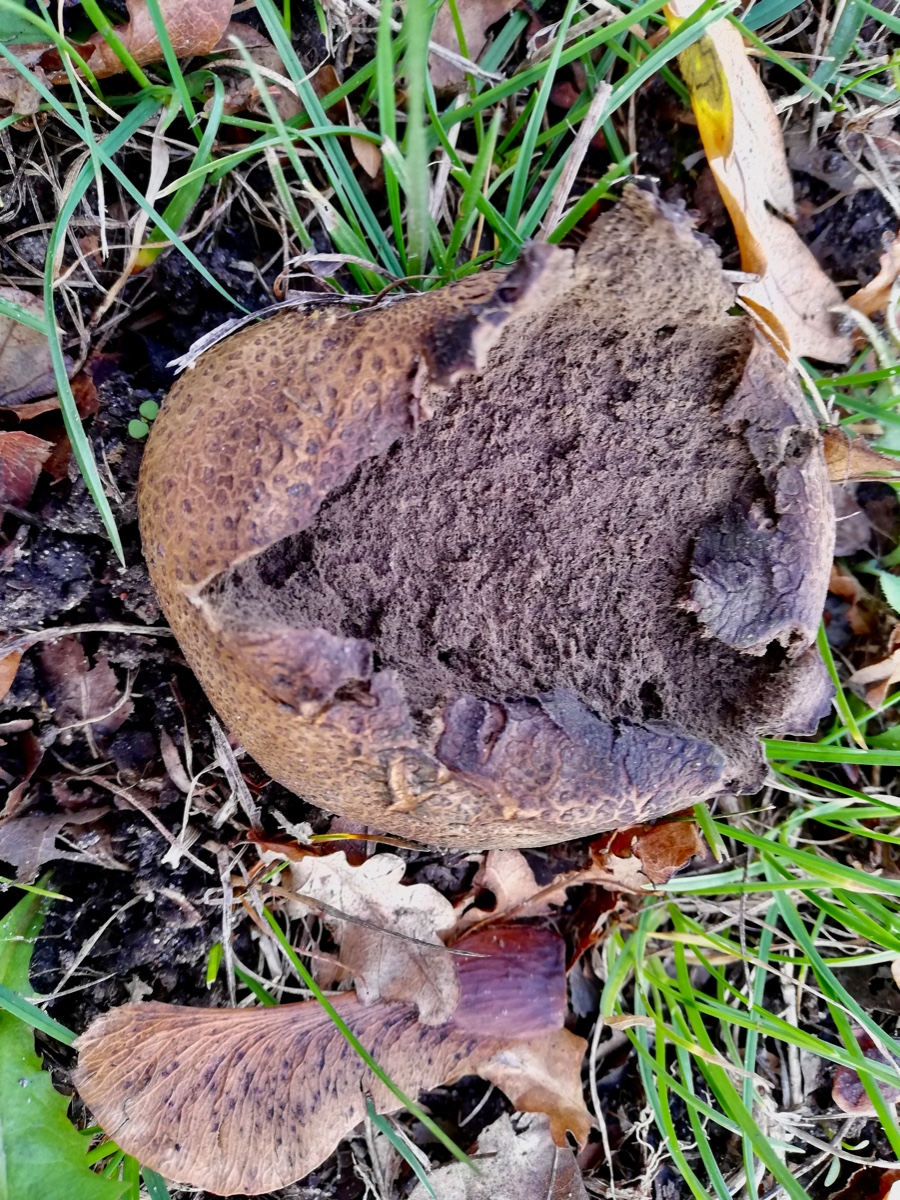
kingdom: Fungi
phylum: Basidiomycota
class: Agaricomycetes
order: Boletales
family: Sclerodermataceae
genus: Scleroderma
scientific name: Scleroderma citrinum
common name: almindelig bruskbold
